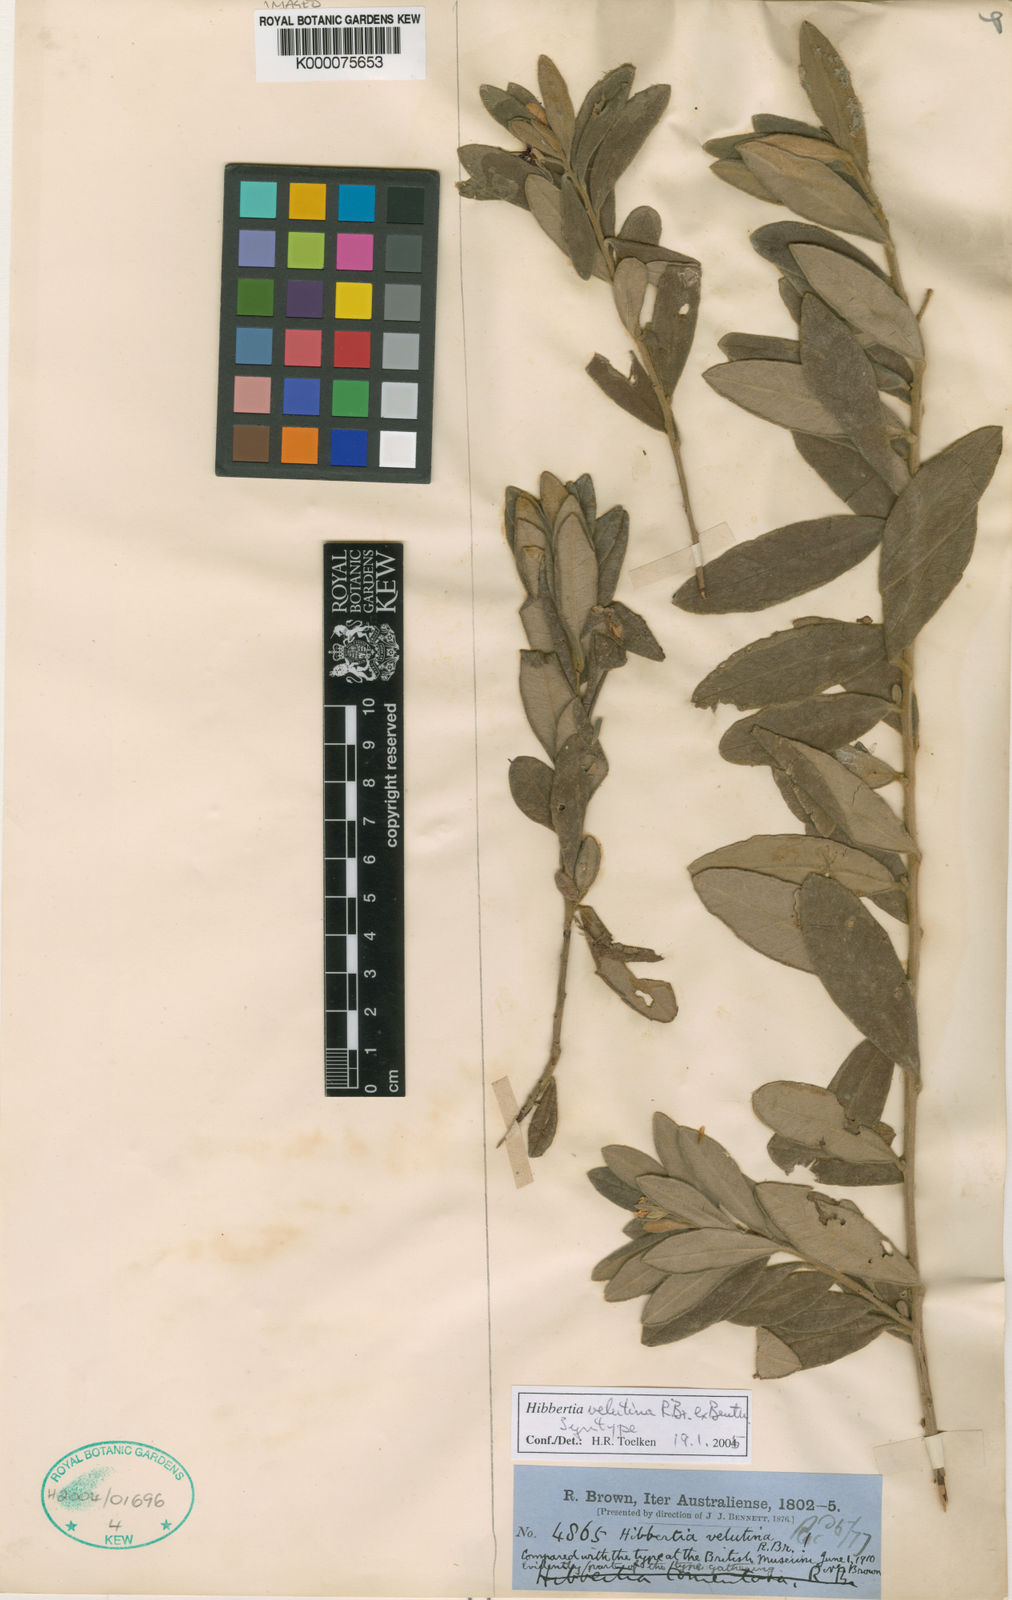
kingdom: Plantae
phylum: Tracheophyta
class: Magnoliopsida
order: Dilleniales
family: Dilleniaceae
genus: Hibbertia
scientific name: Hibbertia velutina
